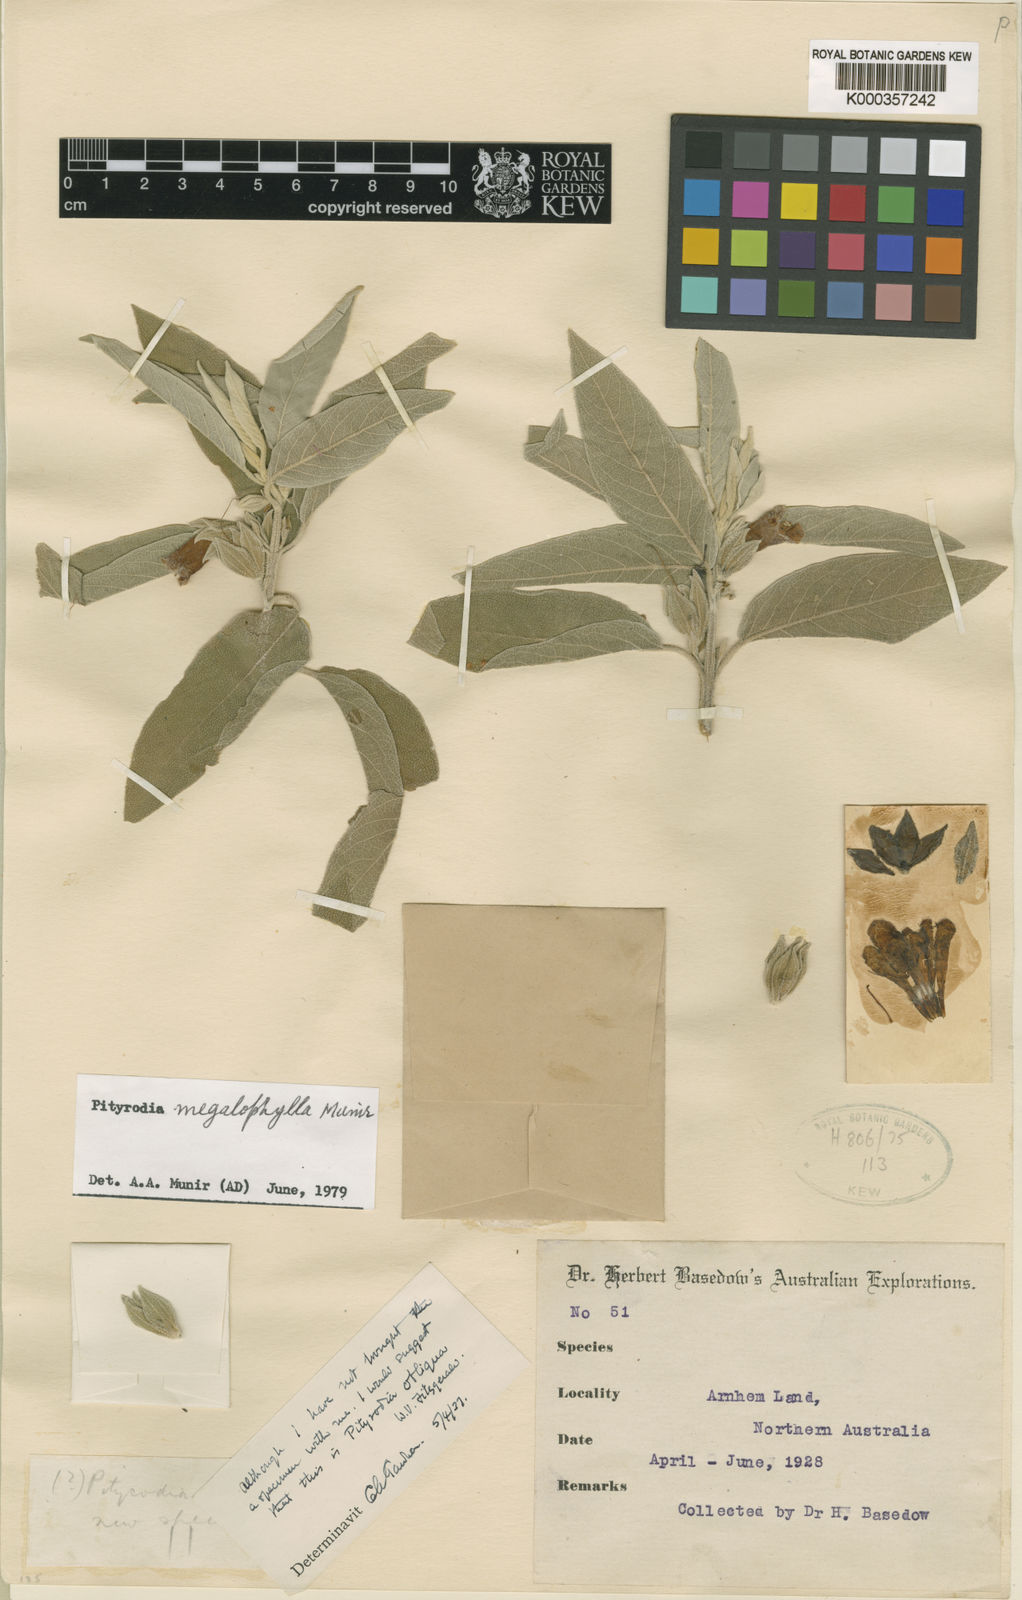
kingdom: Plantae
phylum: Tracheophyta
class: Magnoliopsida
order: Lamiales
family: Lamiaceae
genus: Muniria
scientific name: Muniria megalophylla
